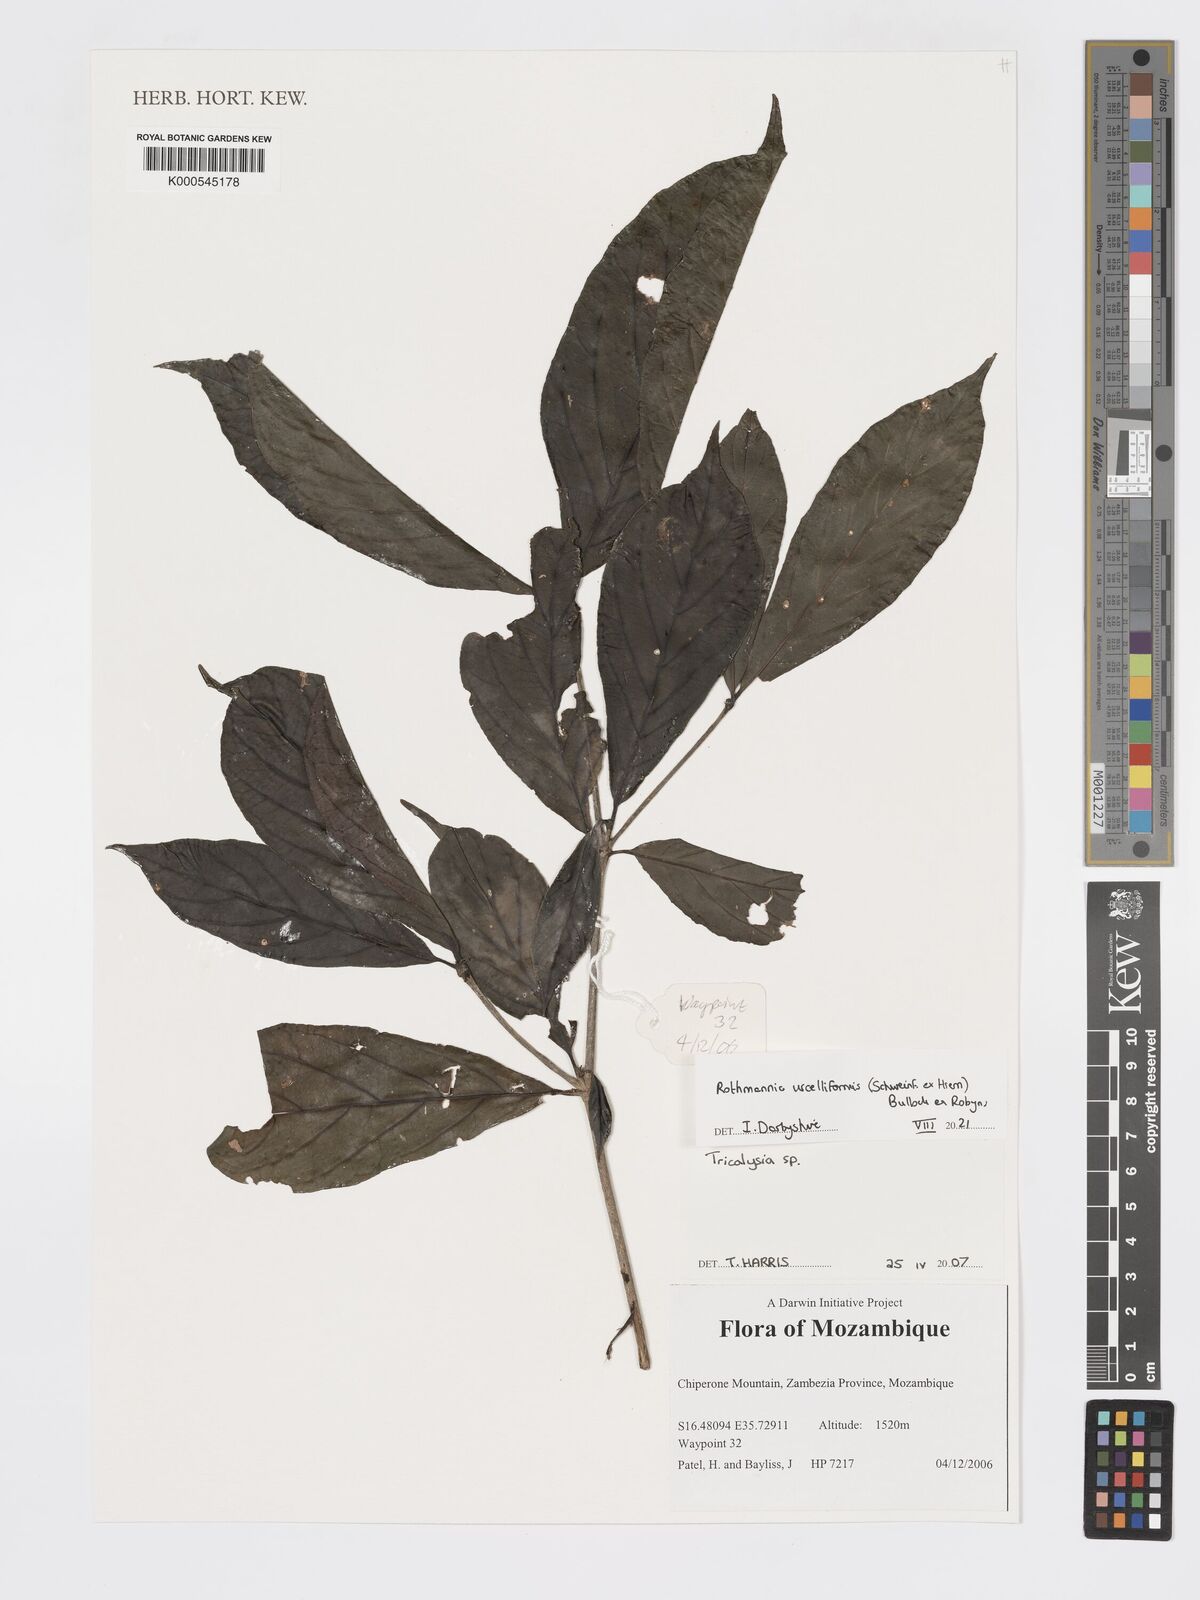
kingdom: Plantae
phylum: Tracheophyta
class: Magnoliopsida
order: Gentianales
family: Rubiaceae
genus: Tricalysia
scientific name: Tricalysia
